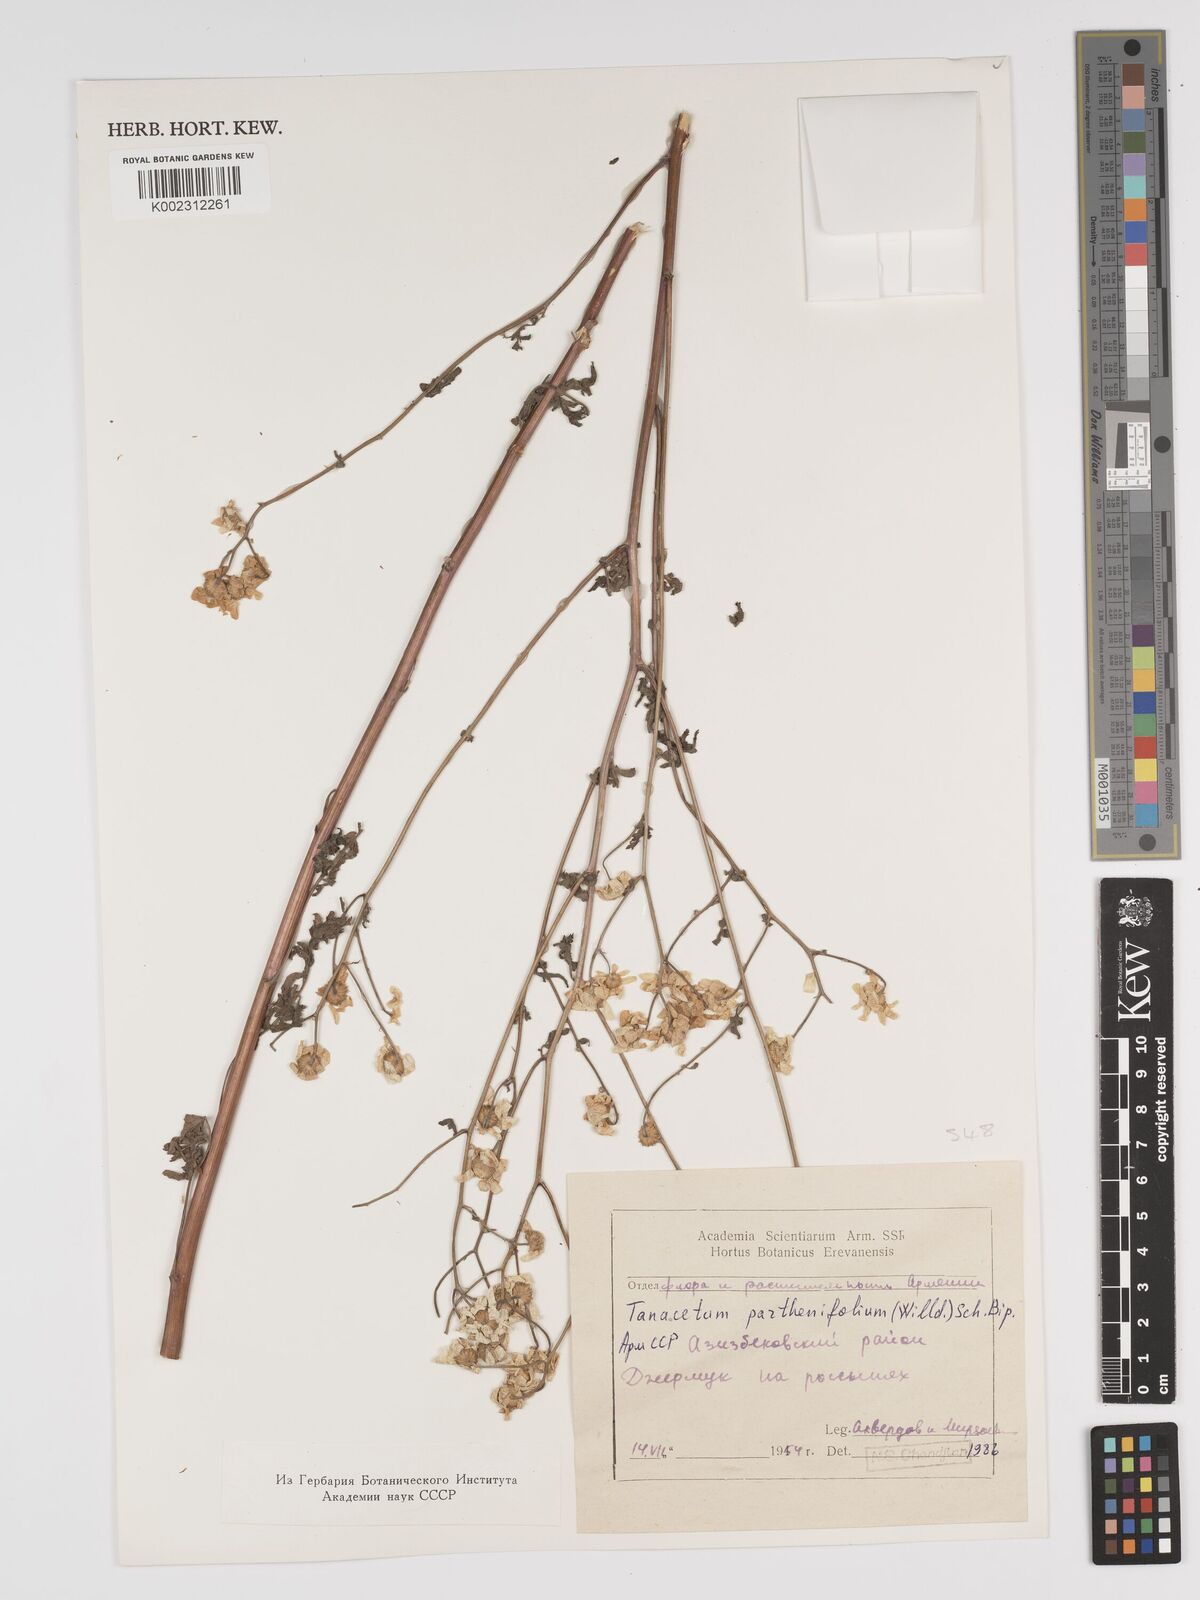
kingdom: Plantae
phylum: Tracheophyta
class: Magnoliopsida
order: Asterales
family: Asteraceae
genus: Tanacetum
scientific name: Tanacetum partheniifolium
